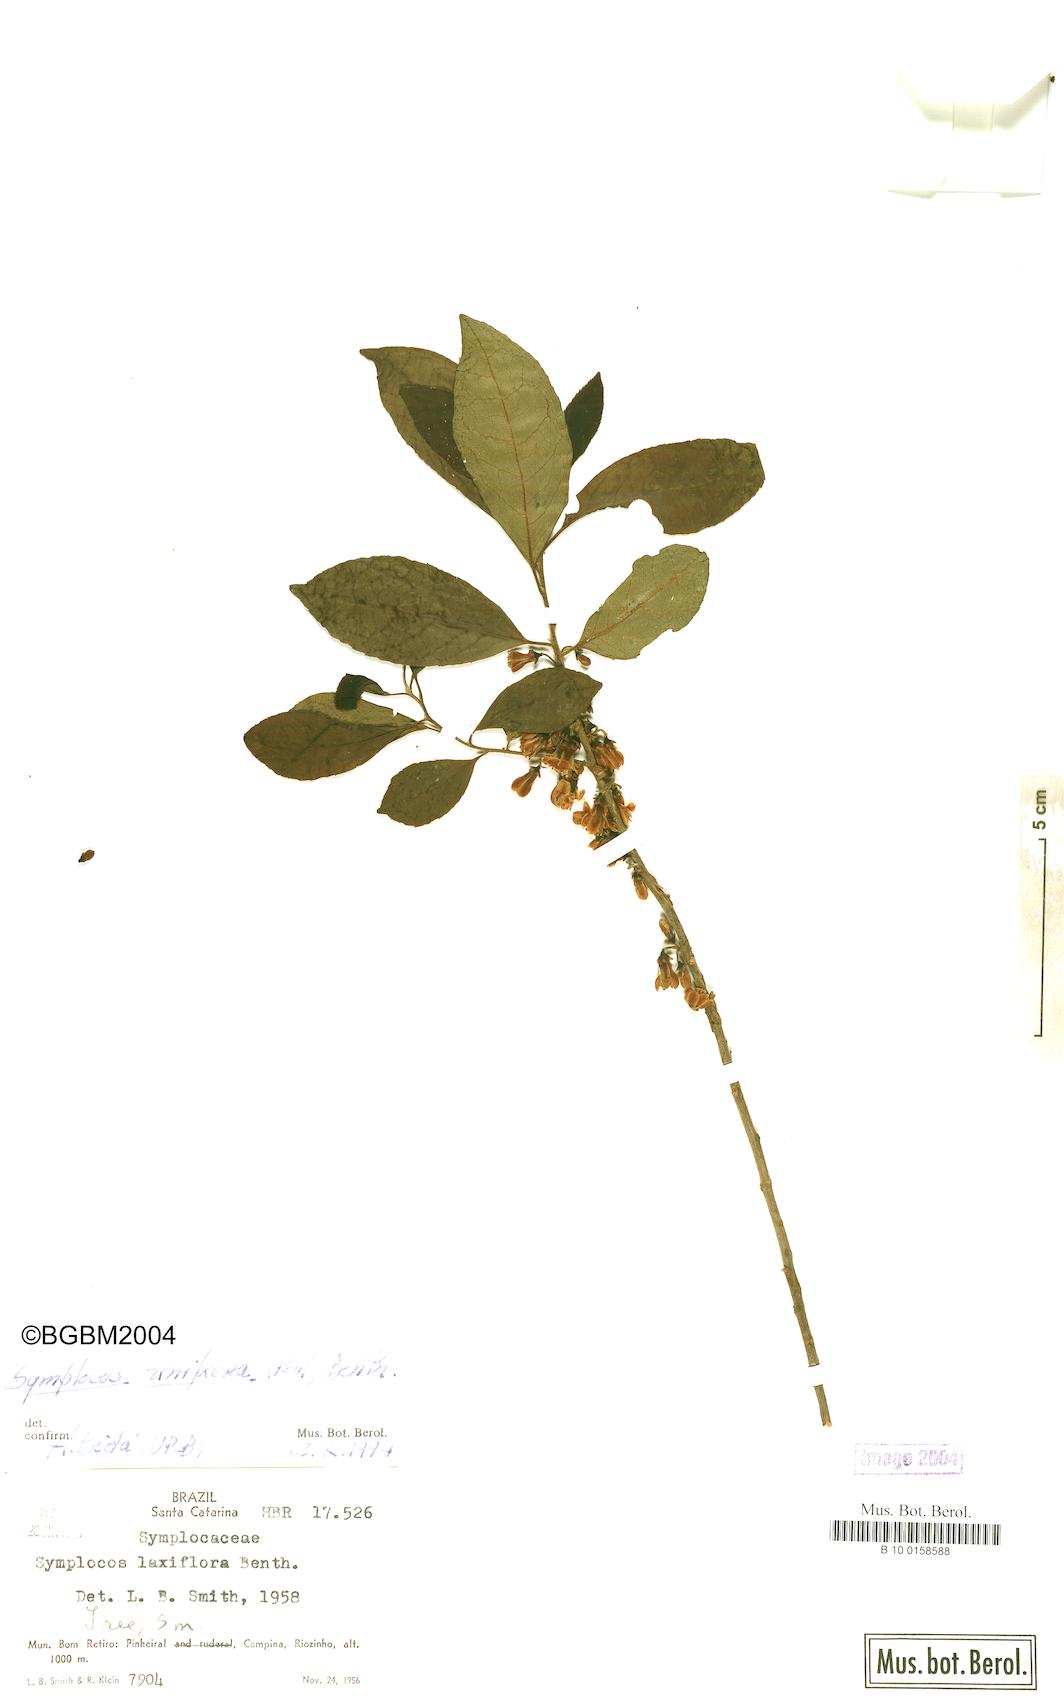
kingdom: Plantae
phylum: Tracheophyta
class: Magnoliopsida
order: Ericales
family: Symplocaceae
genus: Symplocos
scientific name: Symplocos uniflora
